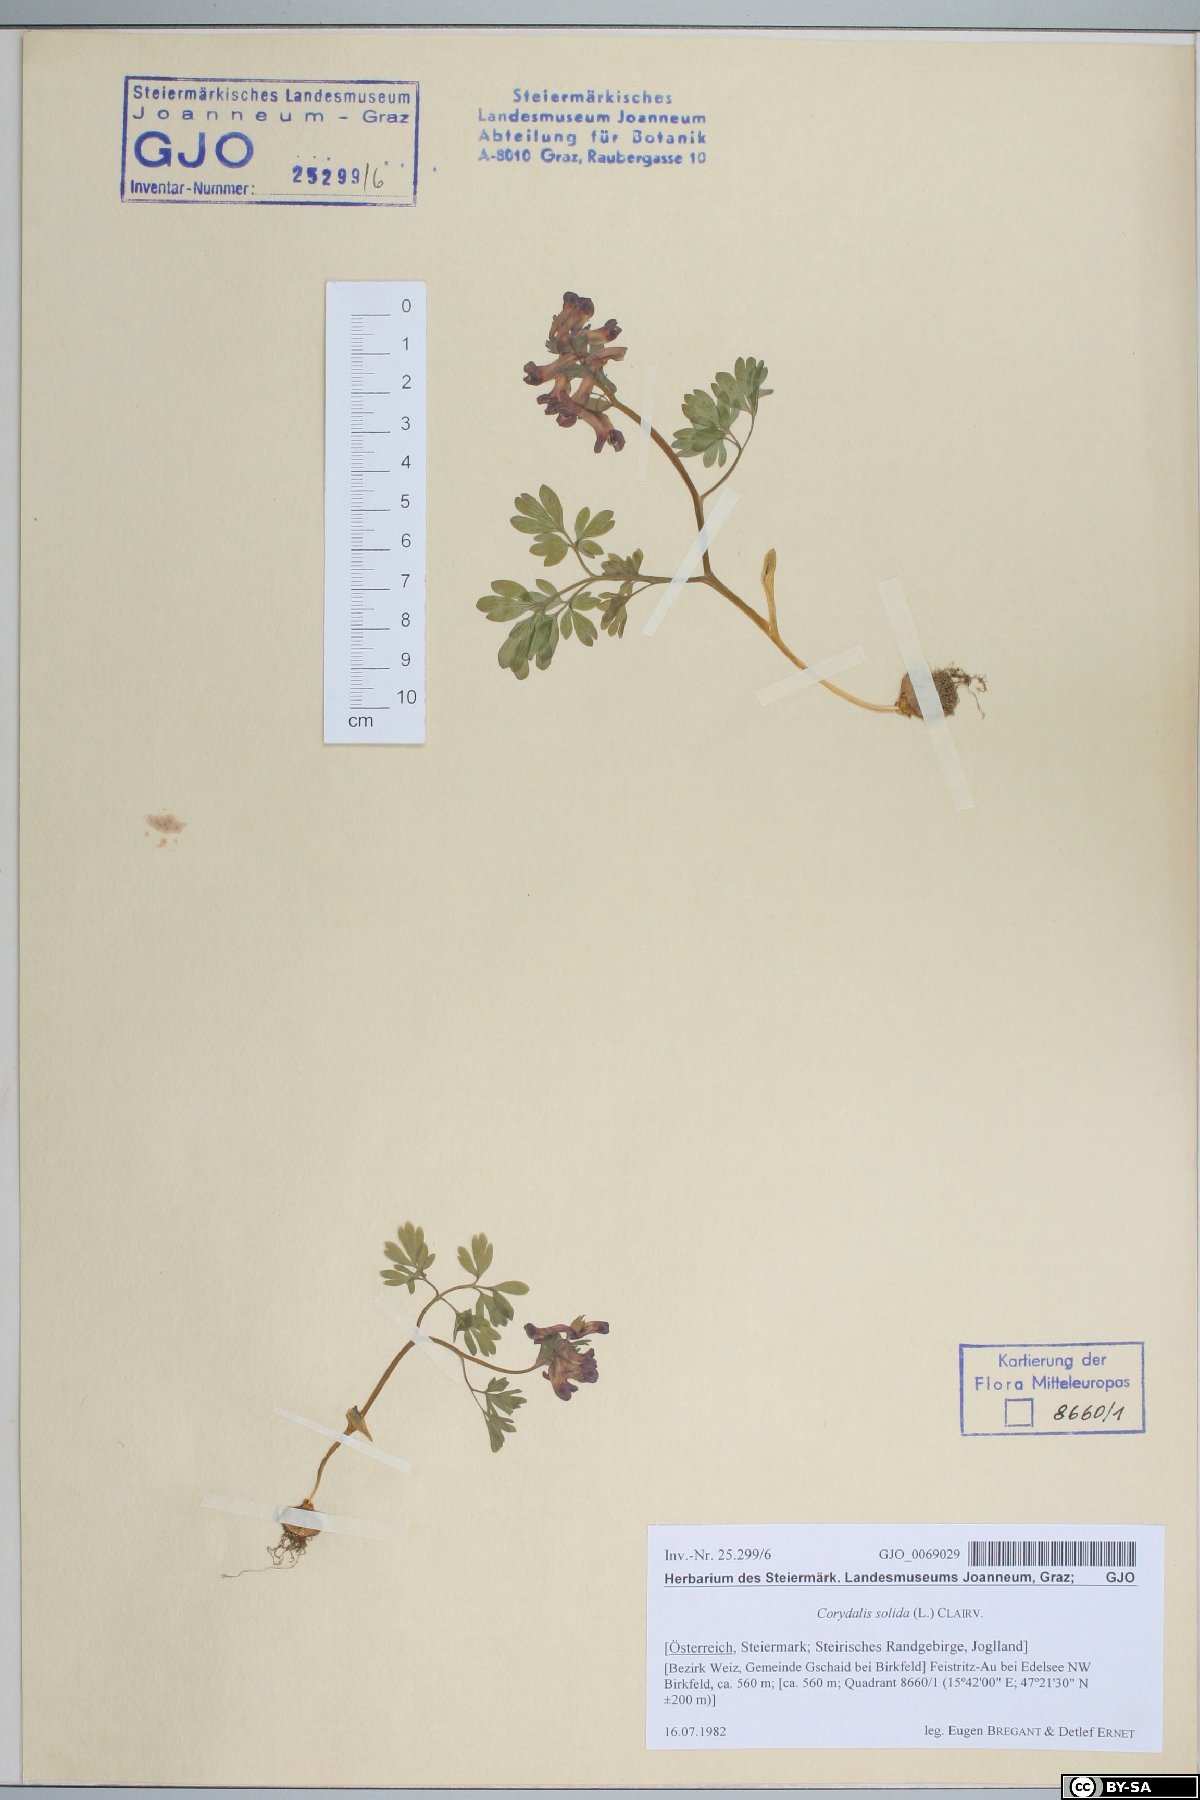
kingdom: Plantae
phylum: Tracheophyta
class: Magnoliopsida
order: Ranunculales
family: Papaveraceae
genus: Corydalis
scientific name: Corydalis solida
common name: Bird-in-a-bush
